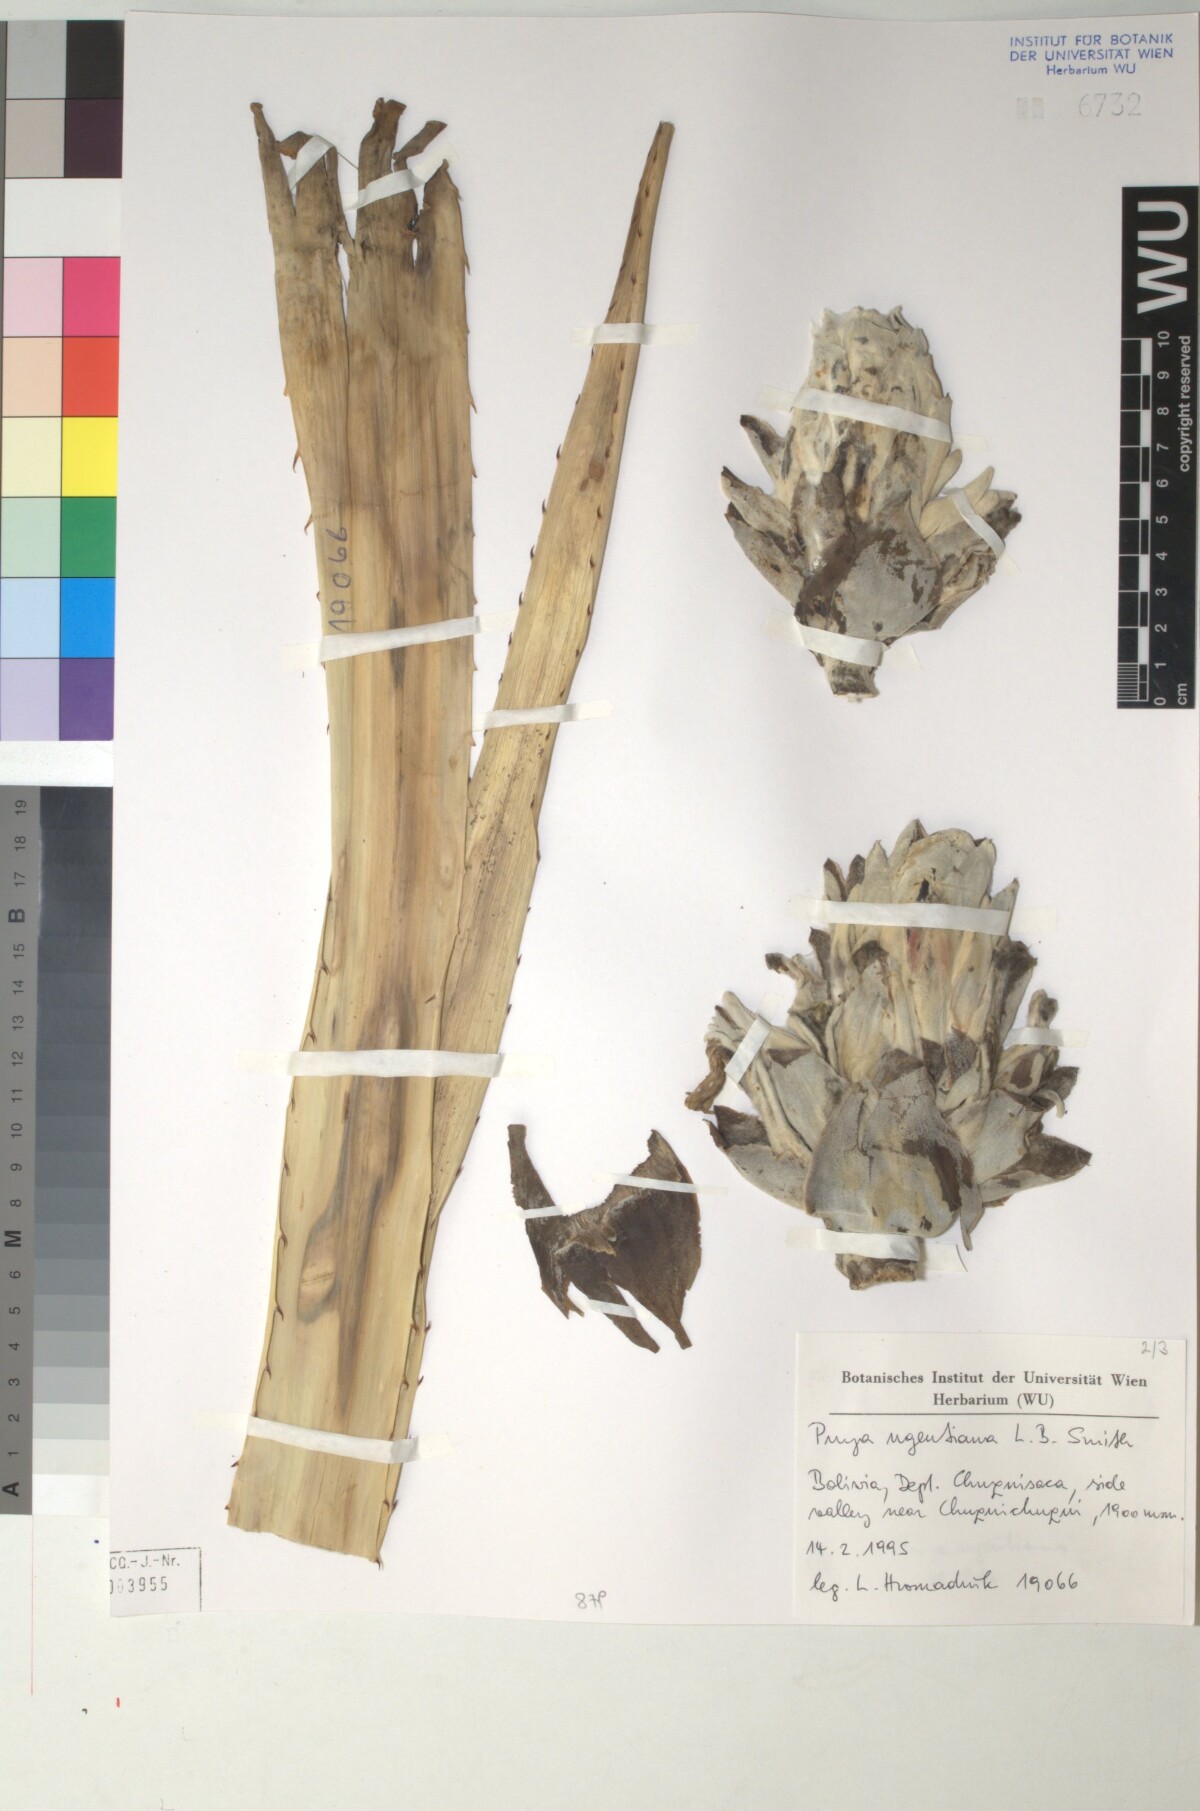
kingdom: Plantae
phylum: Tracheophyta
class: Liliopsida
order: Poales
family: Bromeliaceae
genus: Puya
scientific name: Puya ugentiana
